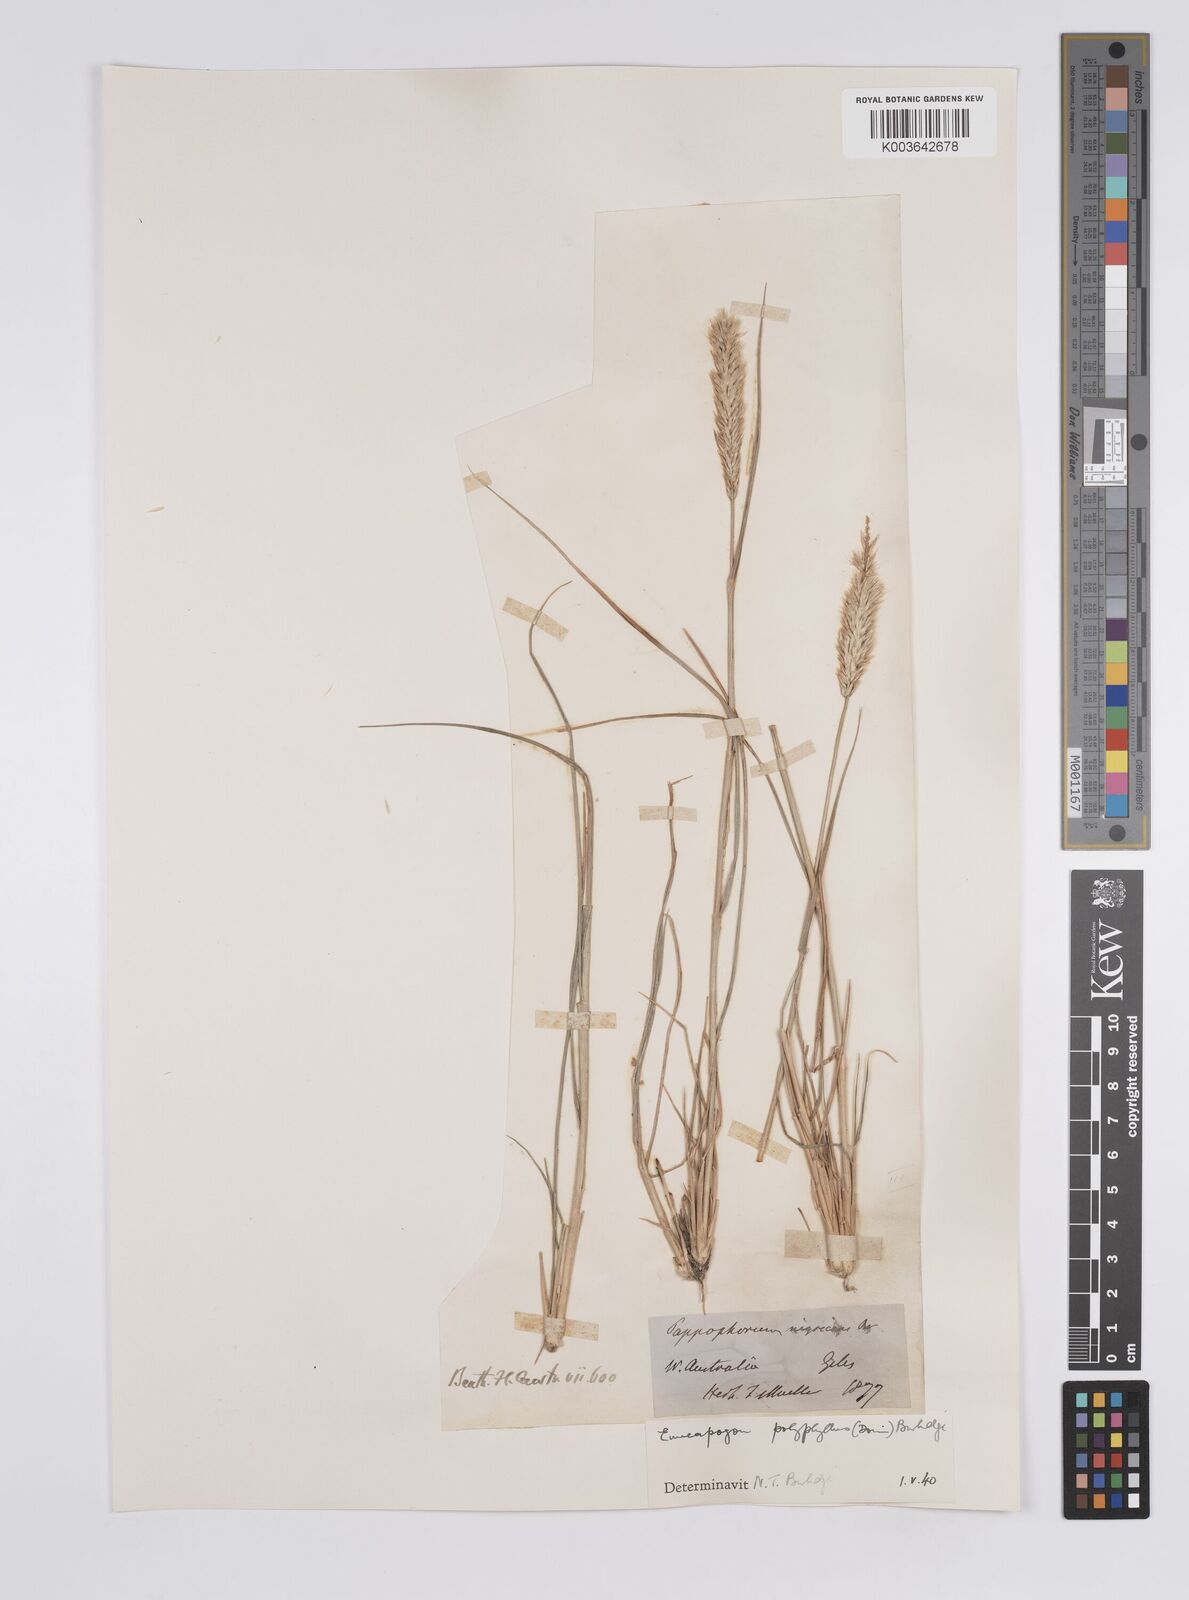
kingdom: Plantae
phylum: Tracheophyta
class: Liliopsida
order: Poales
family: Poaceae
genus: Enneapogon
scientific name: Enneapogon polyphyllus
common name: Leafy nineawn
